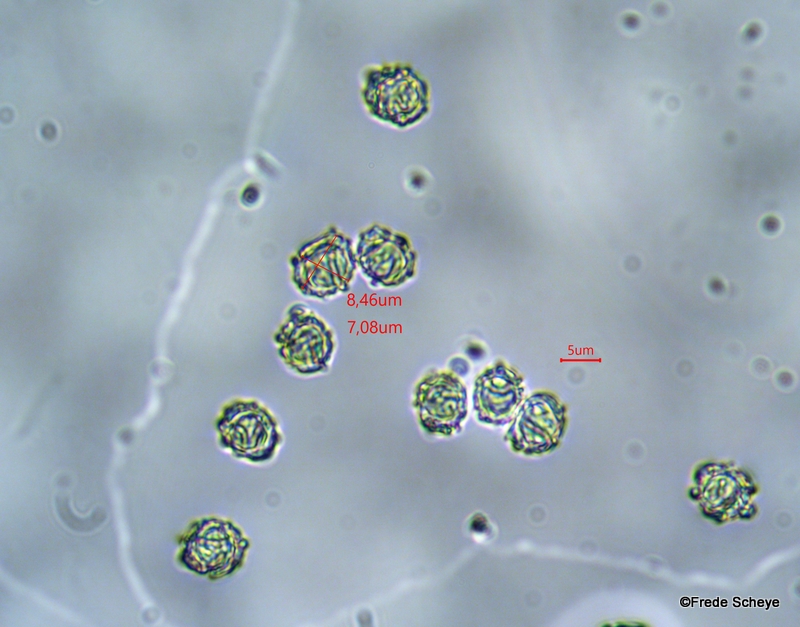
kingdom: Fungi
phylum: Basidiomycota
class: Agaricomycetes
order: Russulales
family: Russulaceae
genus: Lactarius
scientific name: Lactarius pallidus
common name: bleg mælkehat
